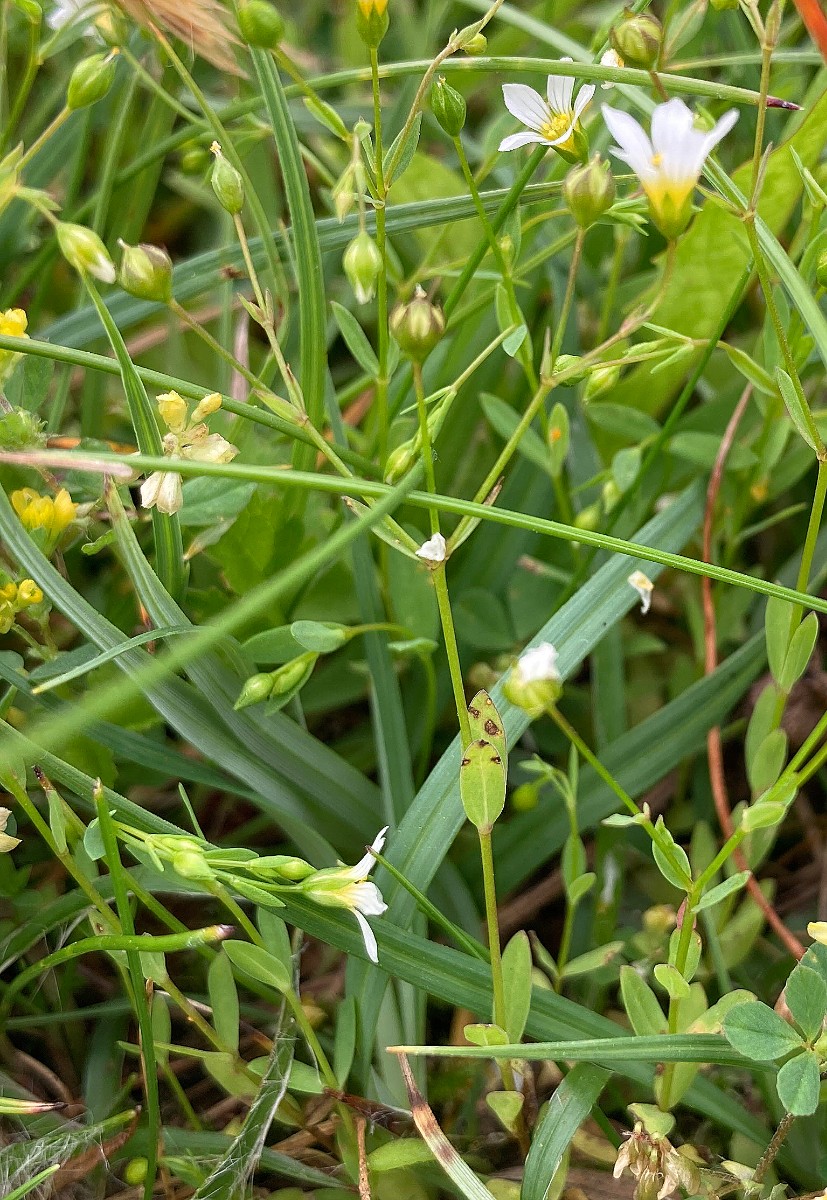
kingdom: Fungi
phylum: Basidiomycota
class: Pucciniomycetes
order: Pucciniales
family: Melampsoraceae
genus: Melampsora
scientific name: Melampsora lini
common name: hør-skorperust
